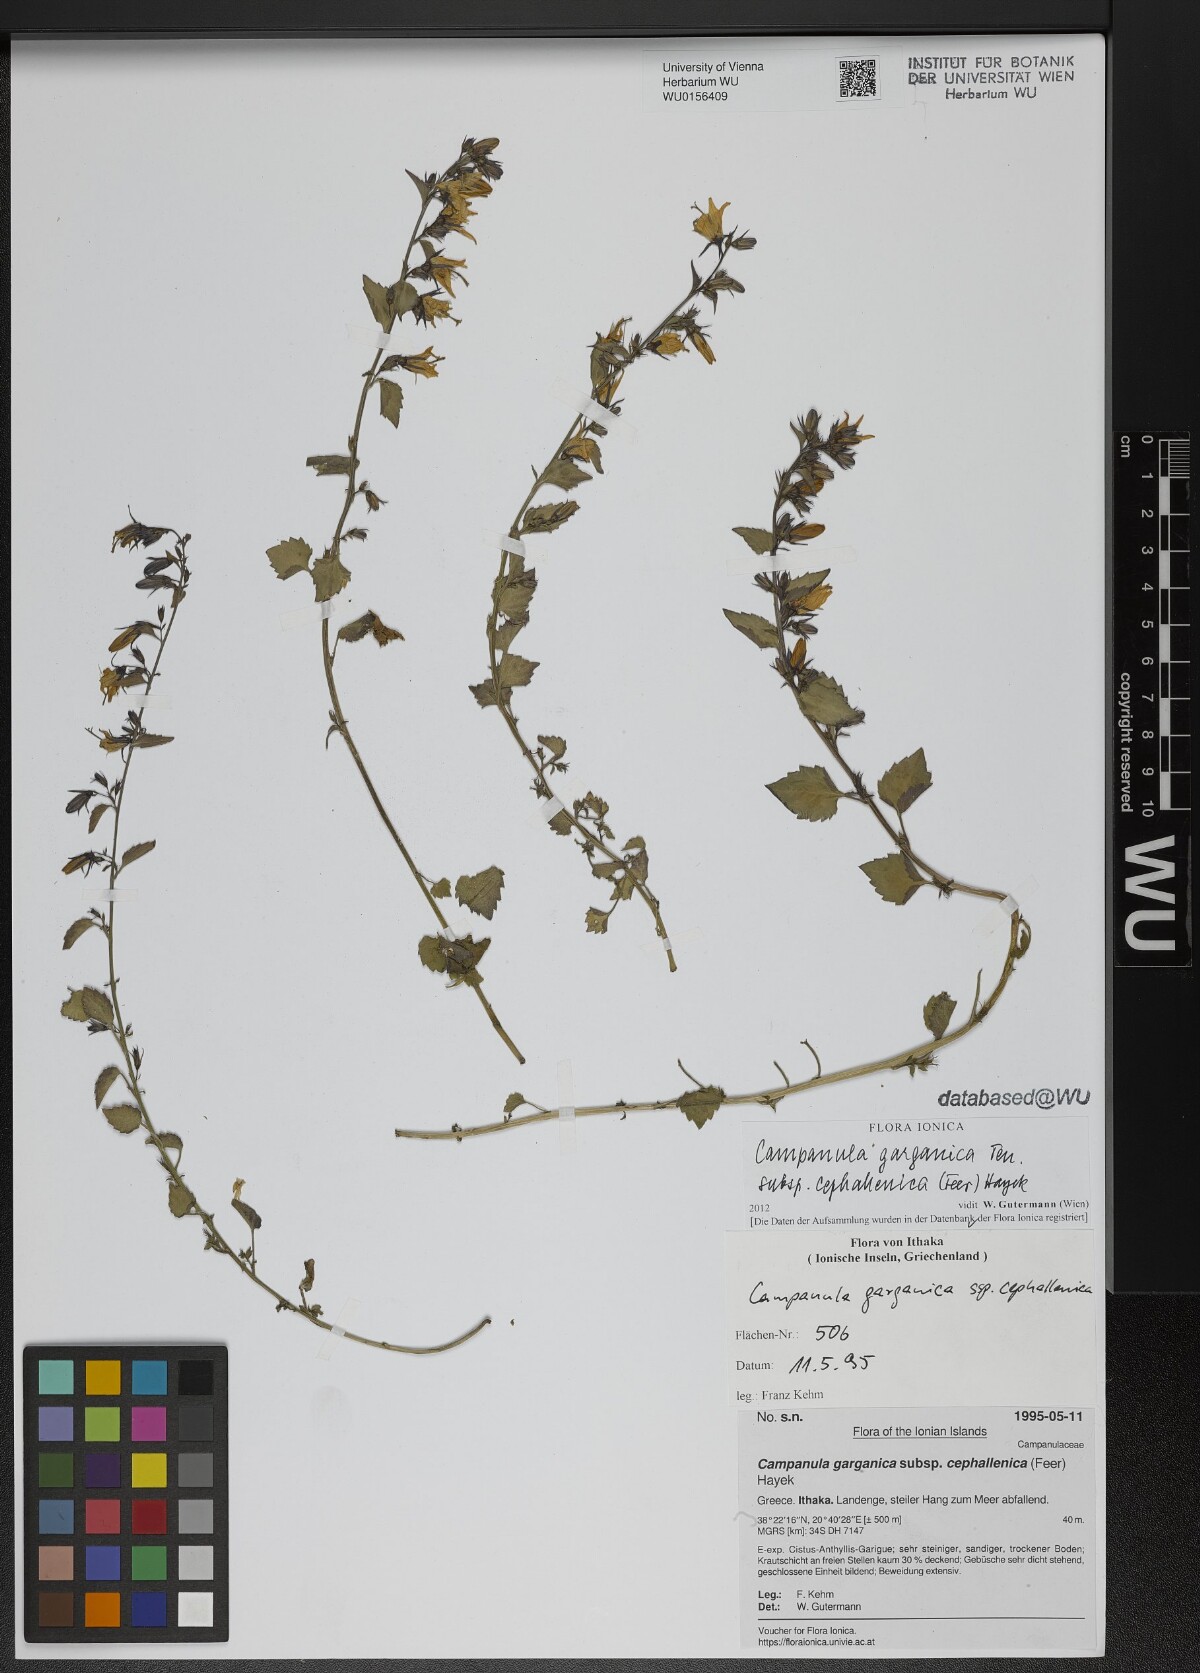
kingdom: Plantae
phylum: Tracheophyta
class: Magnoliopsida
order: Asterales
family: Campanulaceae
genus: Campanula
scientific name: Campanula garganica
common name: Adriatic bellflower
